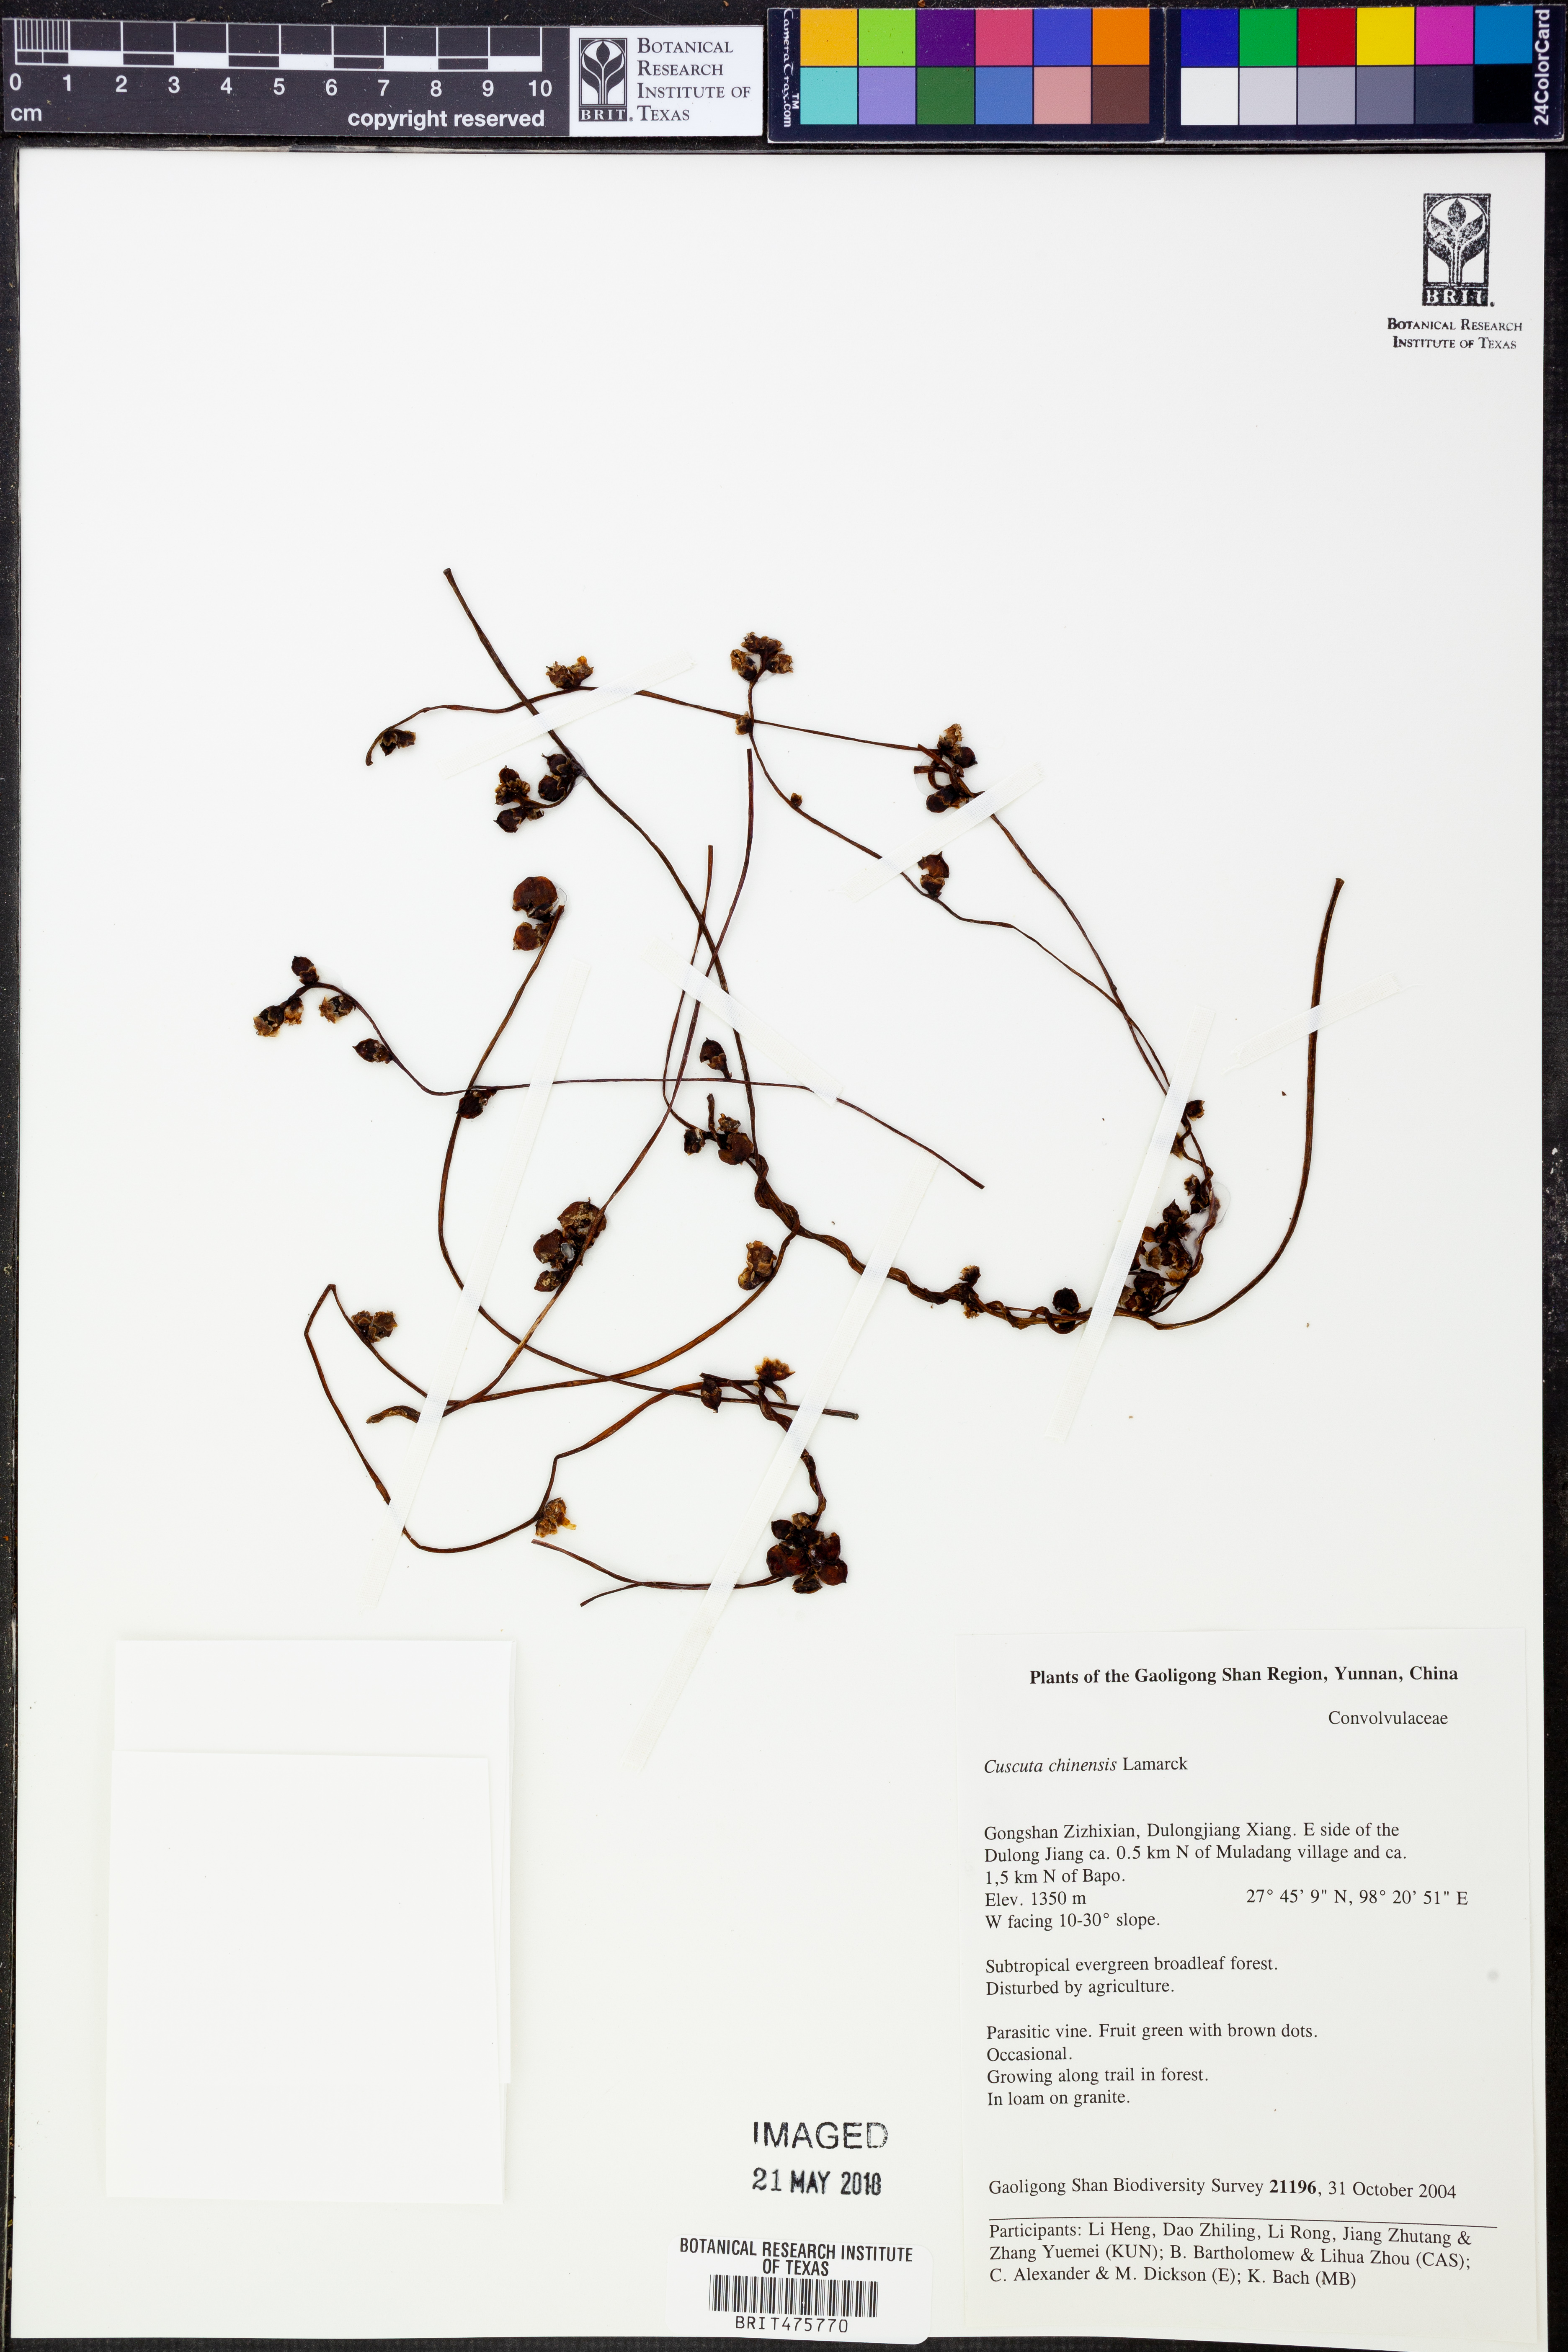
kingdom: Plantae
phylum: Tracheophyta
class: Magnoliopsida
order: Solanales
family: Convolvulaceae
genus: Cuscuta
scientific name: Cuscuta chinensis
